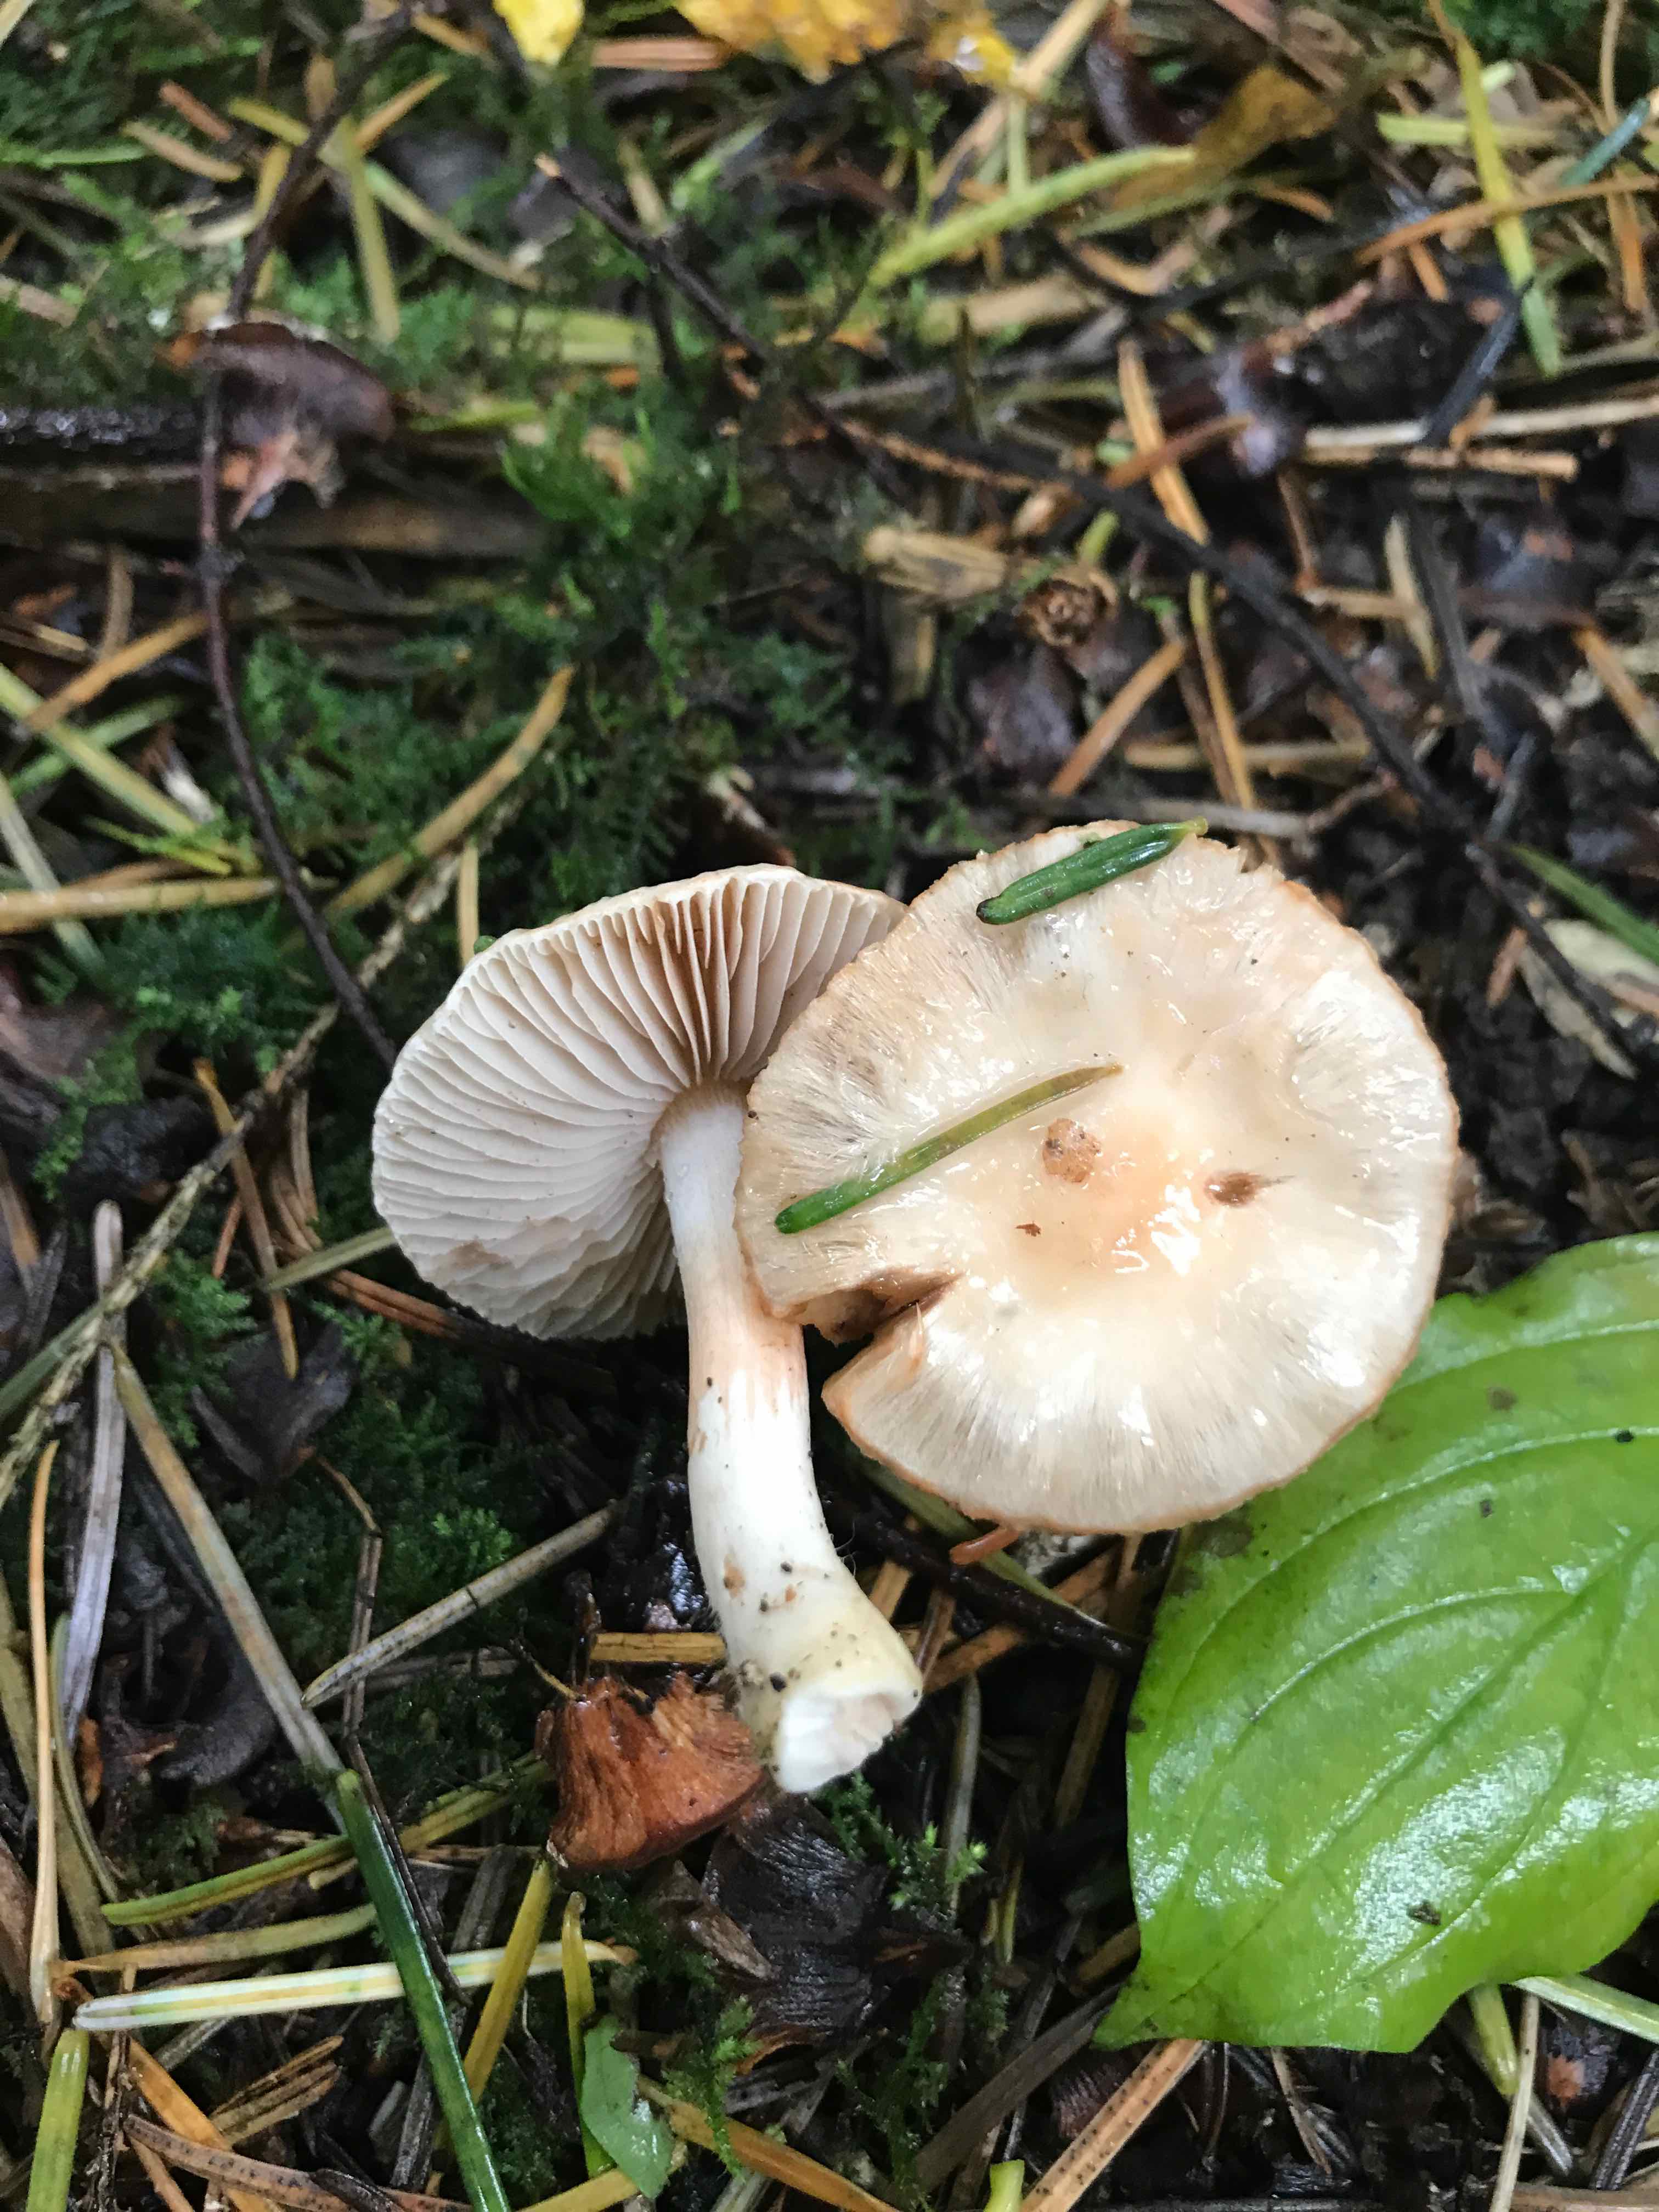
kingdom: Fungi
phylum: Basidiomycota
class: Agaricomycetes
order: Agaricales
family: Inocybaceae
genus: Inocybe
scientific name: Inocybe
